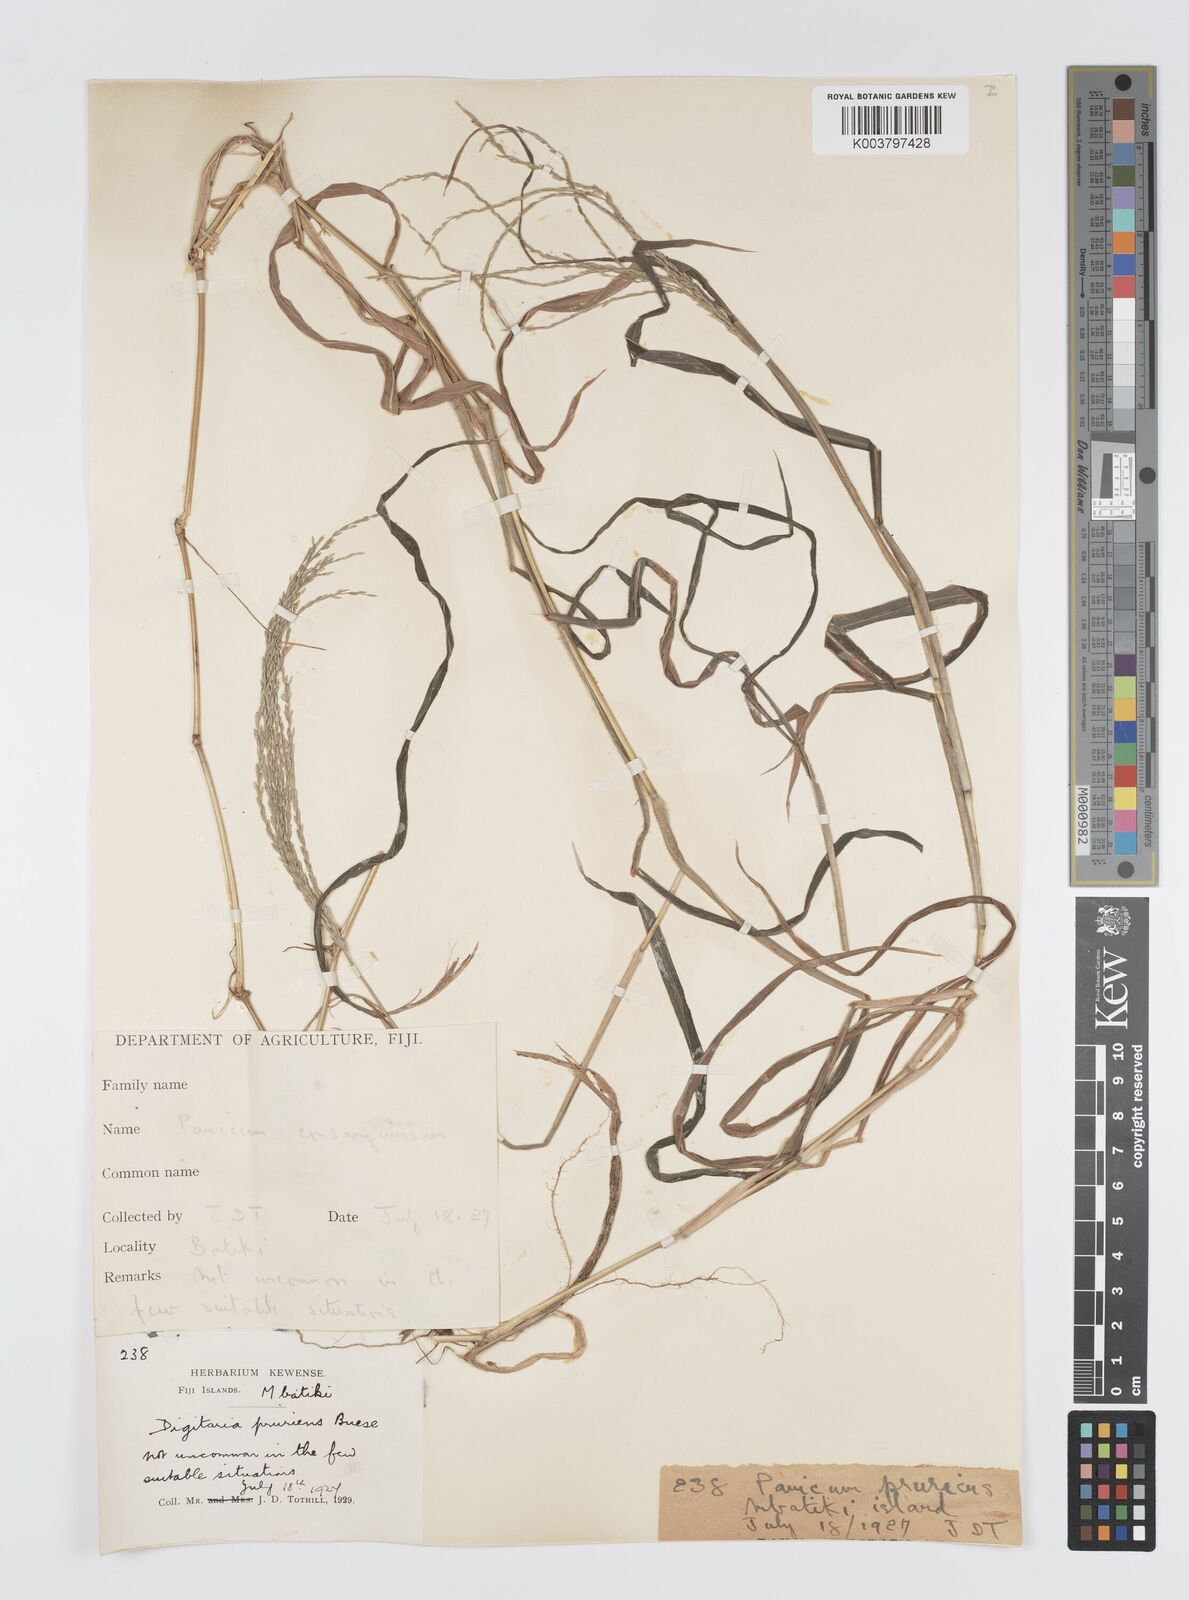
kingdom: Plantae
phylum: Tracheophyta
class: Liliopsida
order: Poales
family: Poaceae
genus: Digitaria
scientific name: Digitaria setigera
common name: East indian crabgrass
